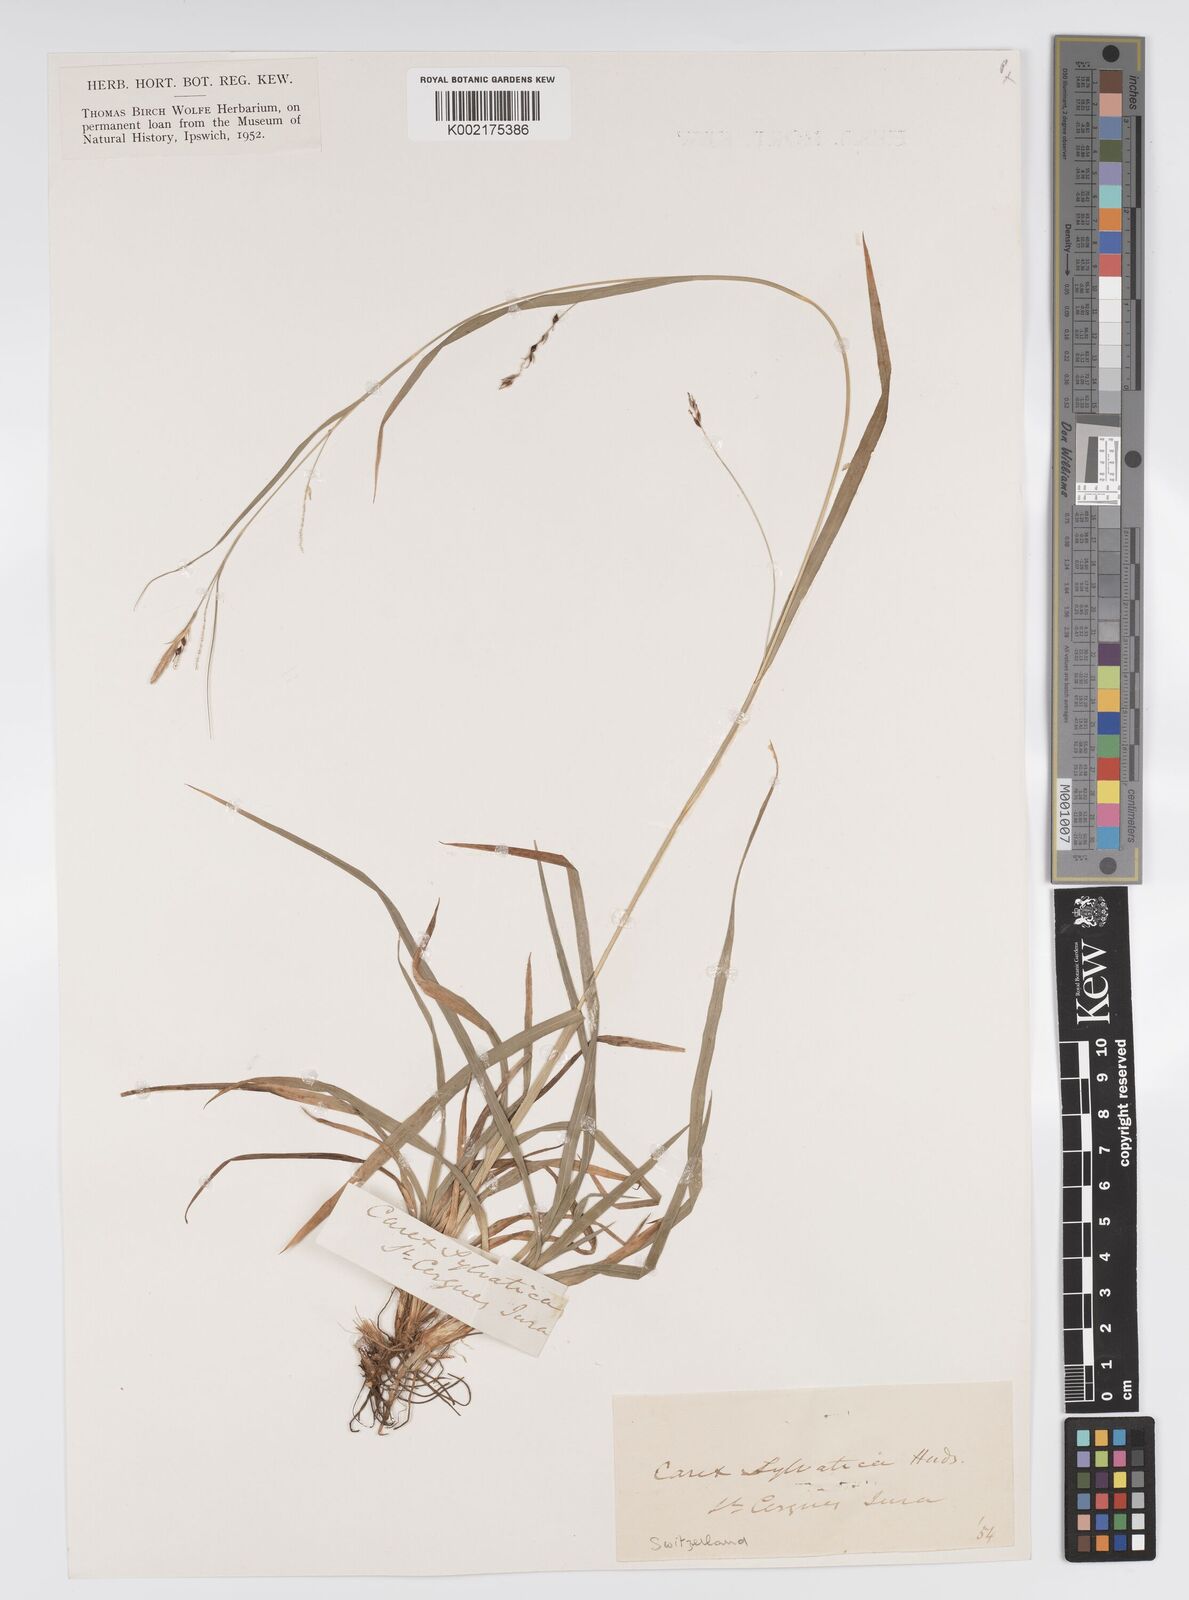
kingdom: Plantae
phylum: Tracheophyta
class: Liliopsida
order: Poales
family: Cyperaceae
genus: Carex
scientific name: Carex sylvatica
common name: Wood-sedge
